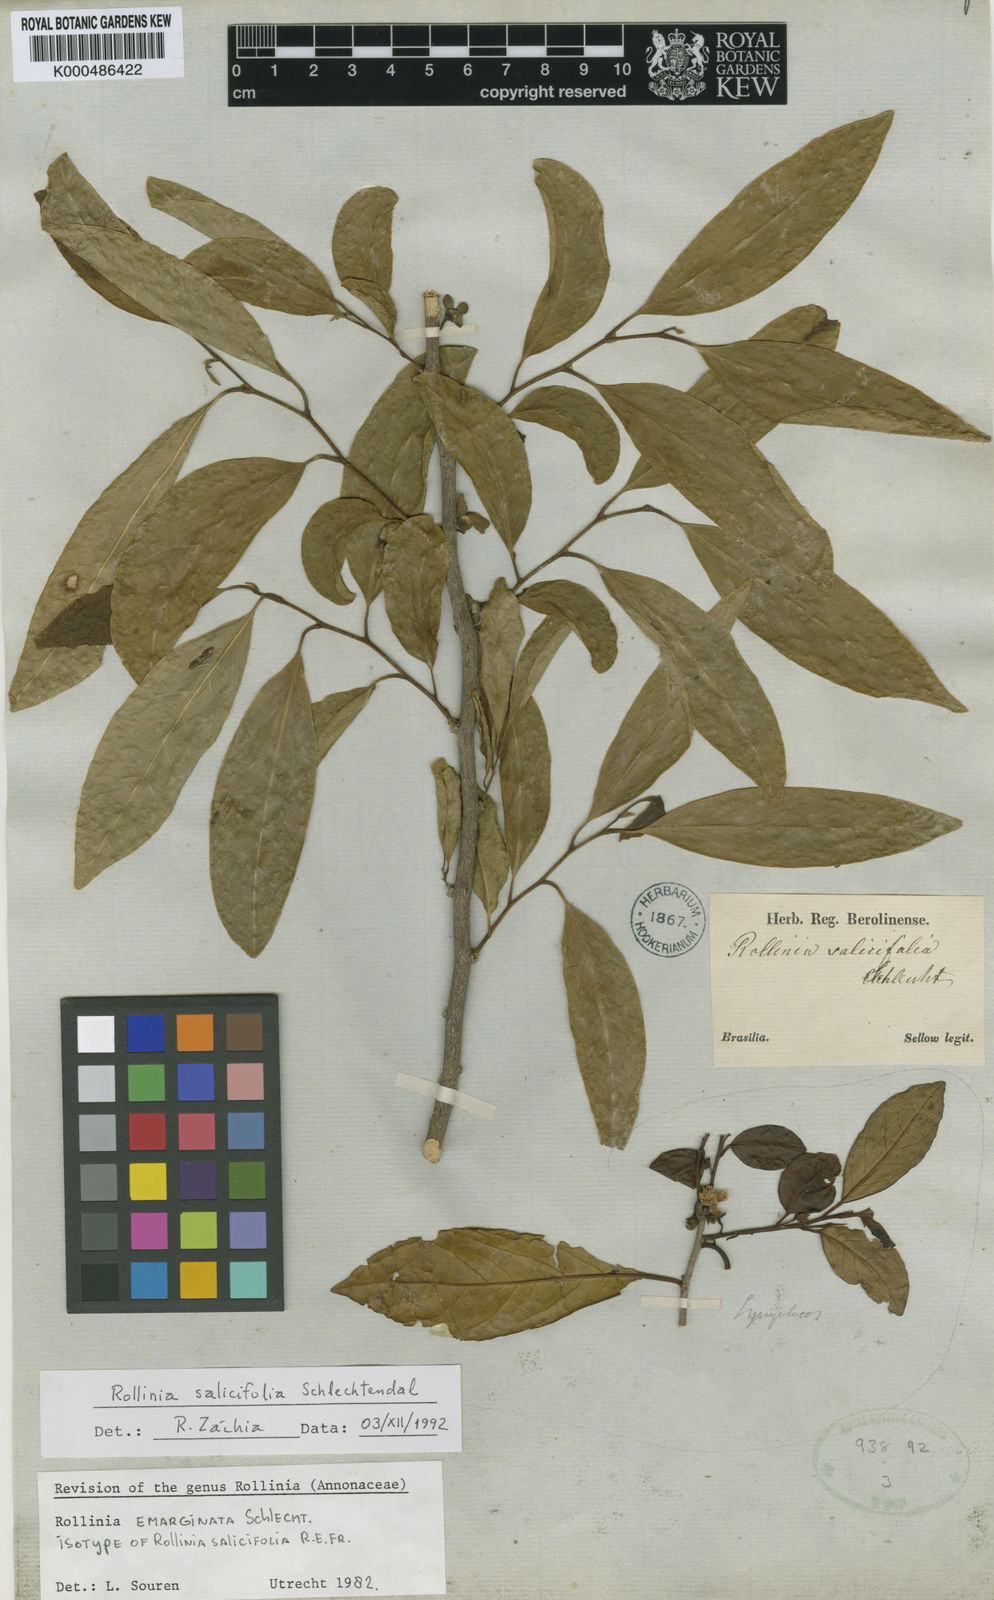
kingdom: Plantae
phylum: Tracheophyta
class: Magnoliopsida
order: Magnoliales
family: Annonaceae
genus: Annona
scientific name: Annona emarginata
